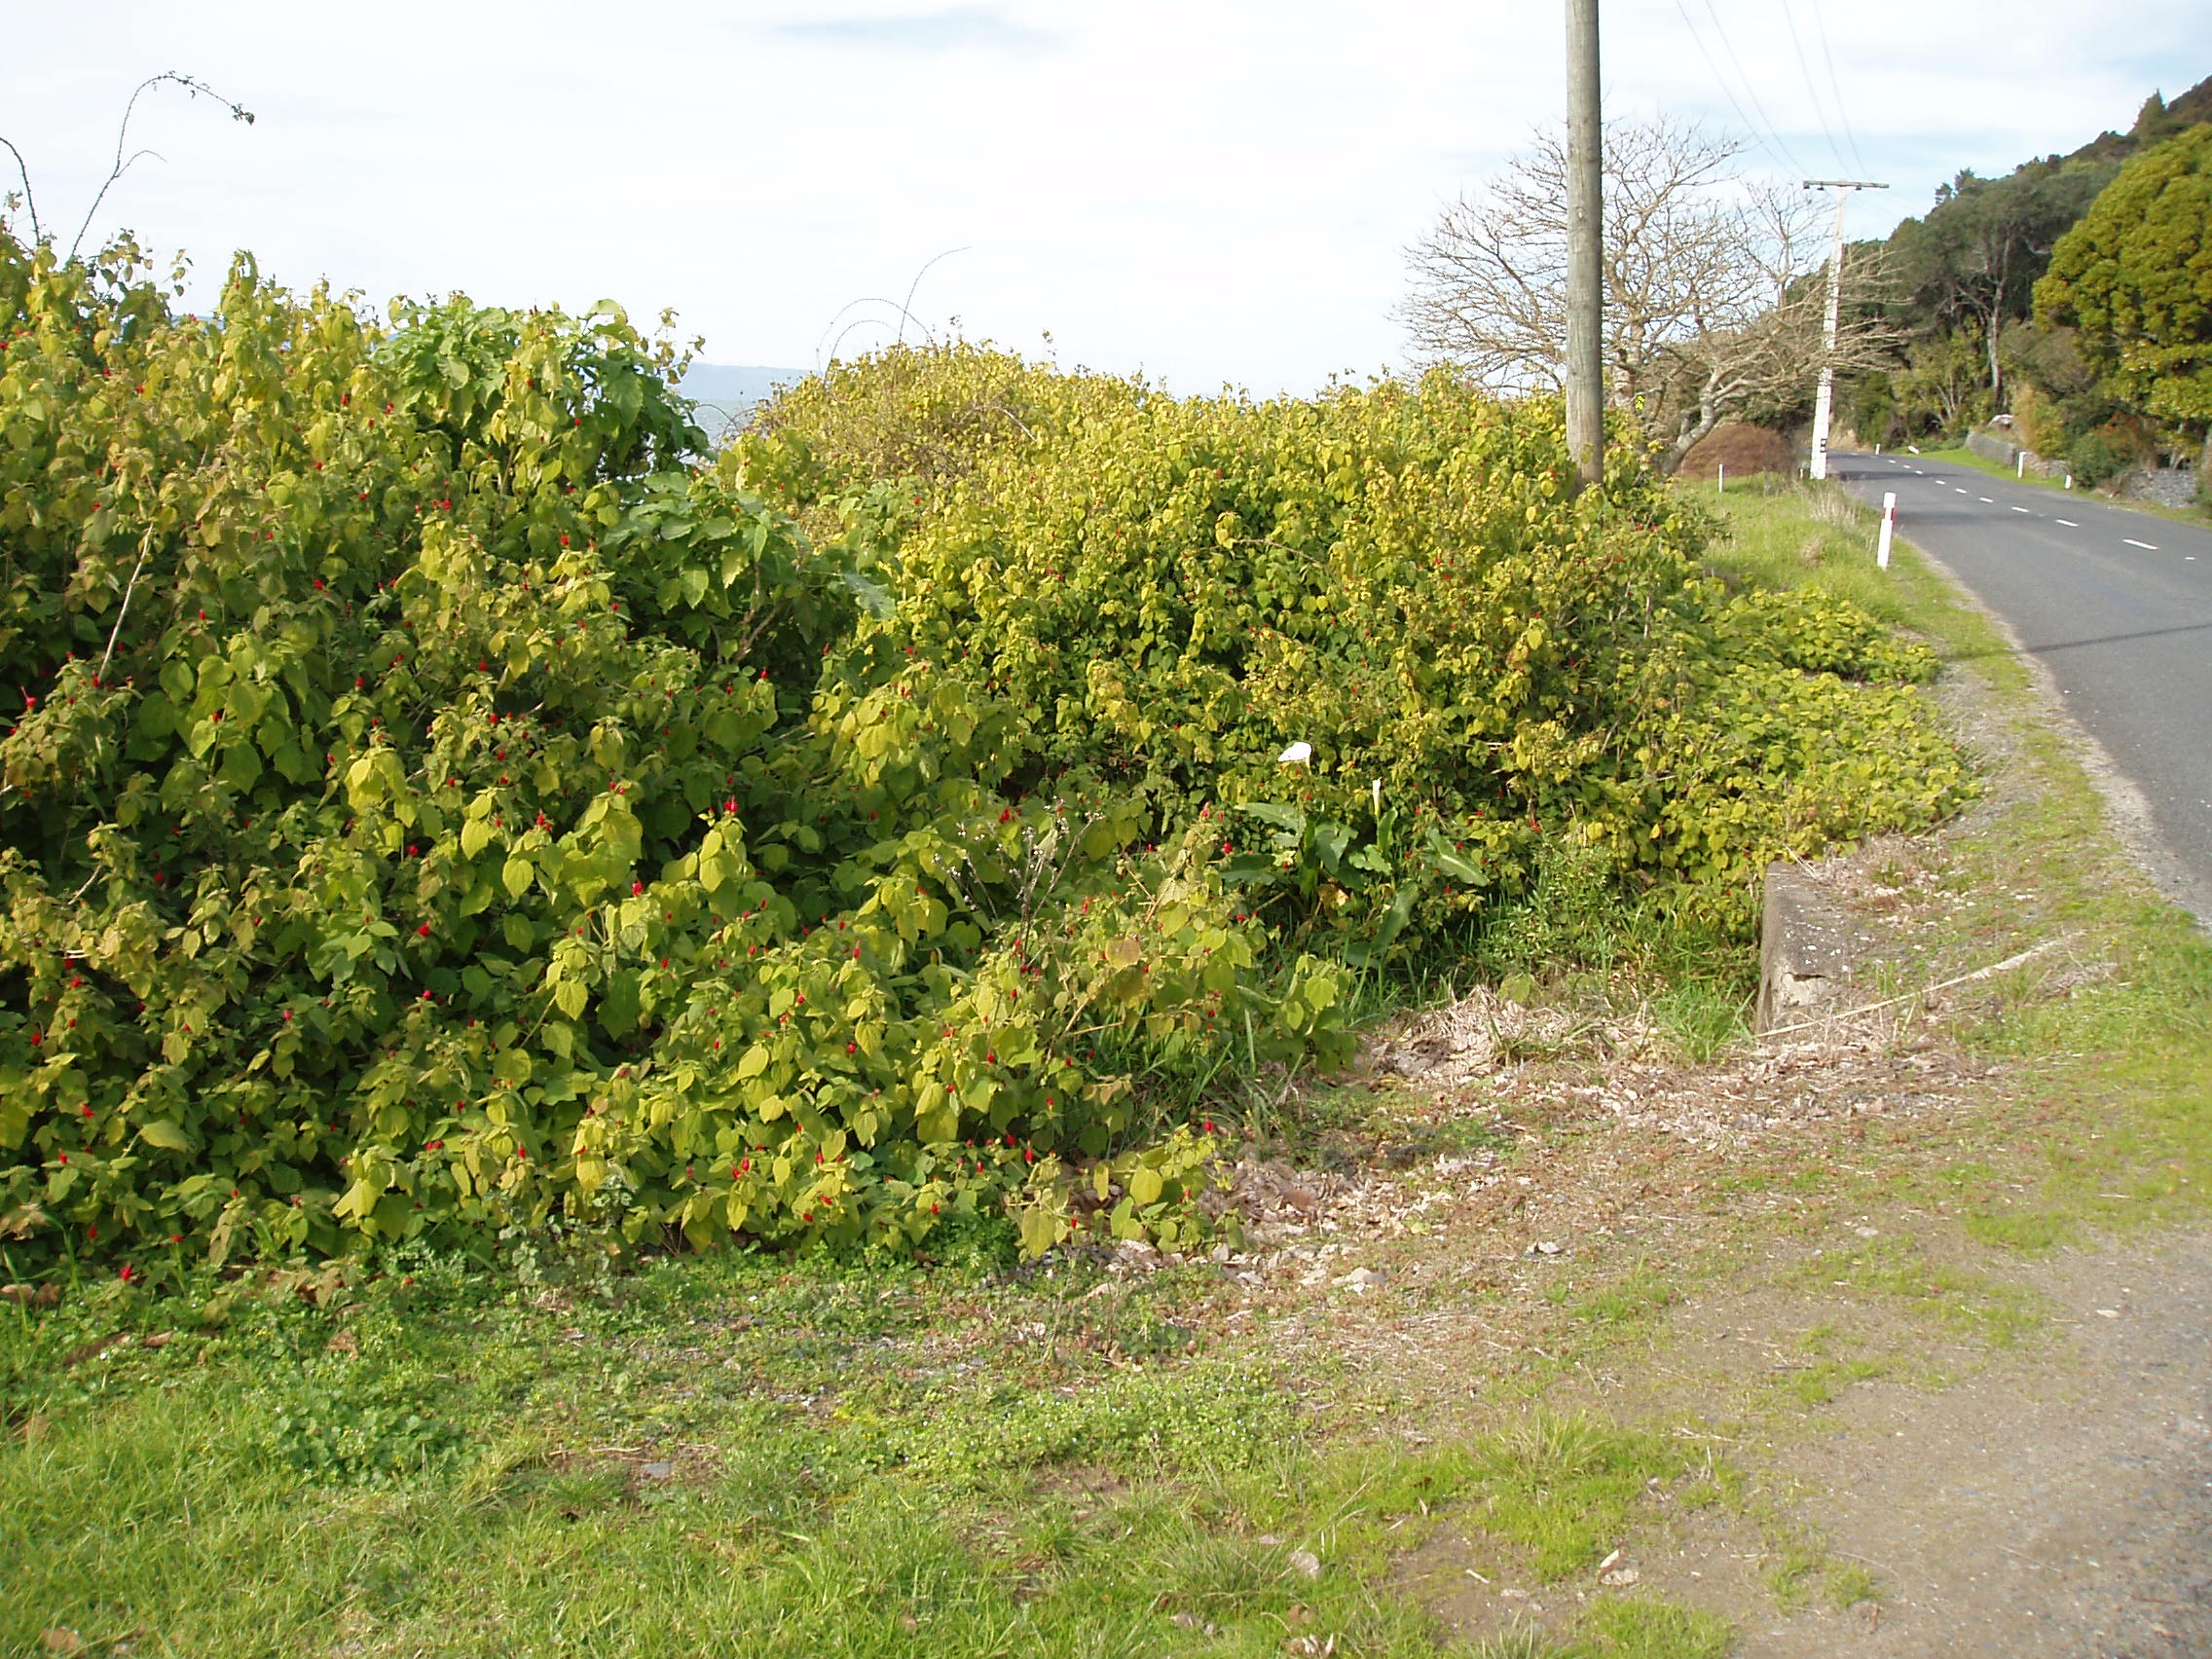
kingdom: Plantae
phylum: Tracheophyta
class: Magnoliopsida
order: Malvales
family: Malvaceae
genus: Malvaviscus
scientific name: Malvaviscus arboreus
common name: Wax mallow
